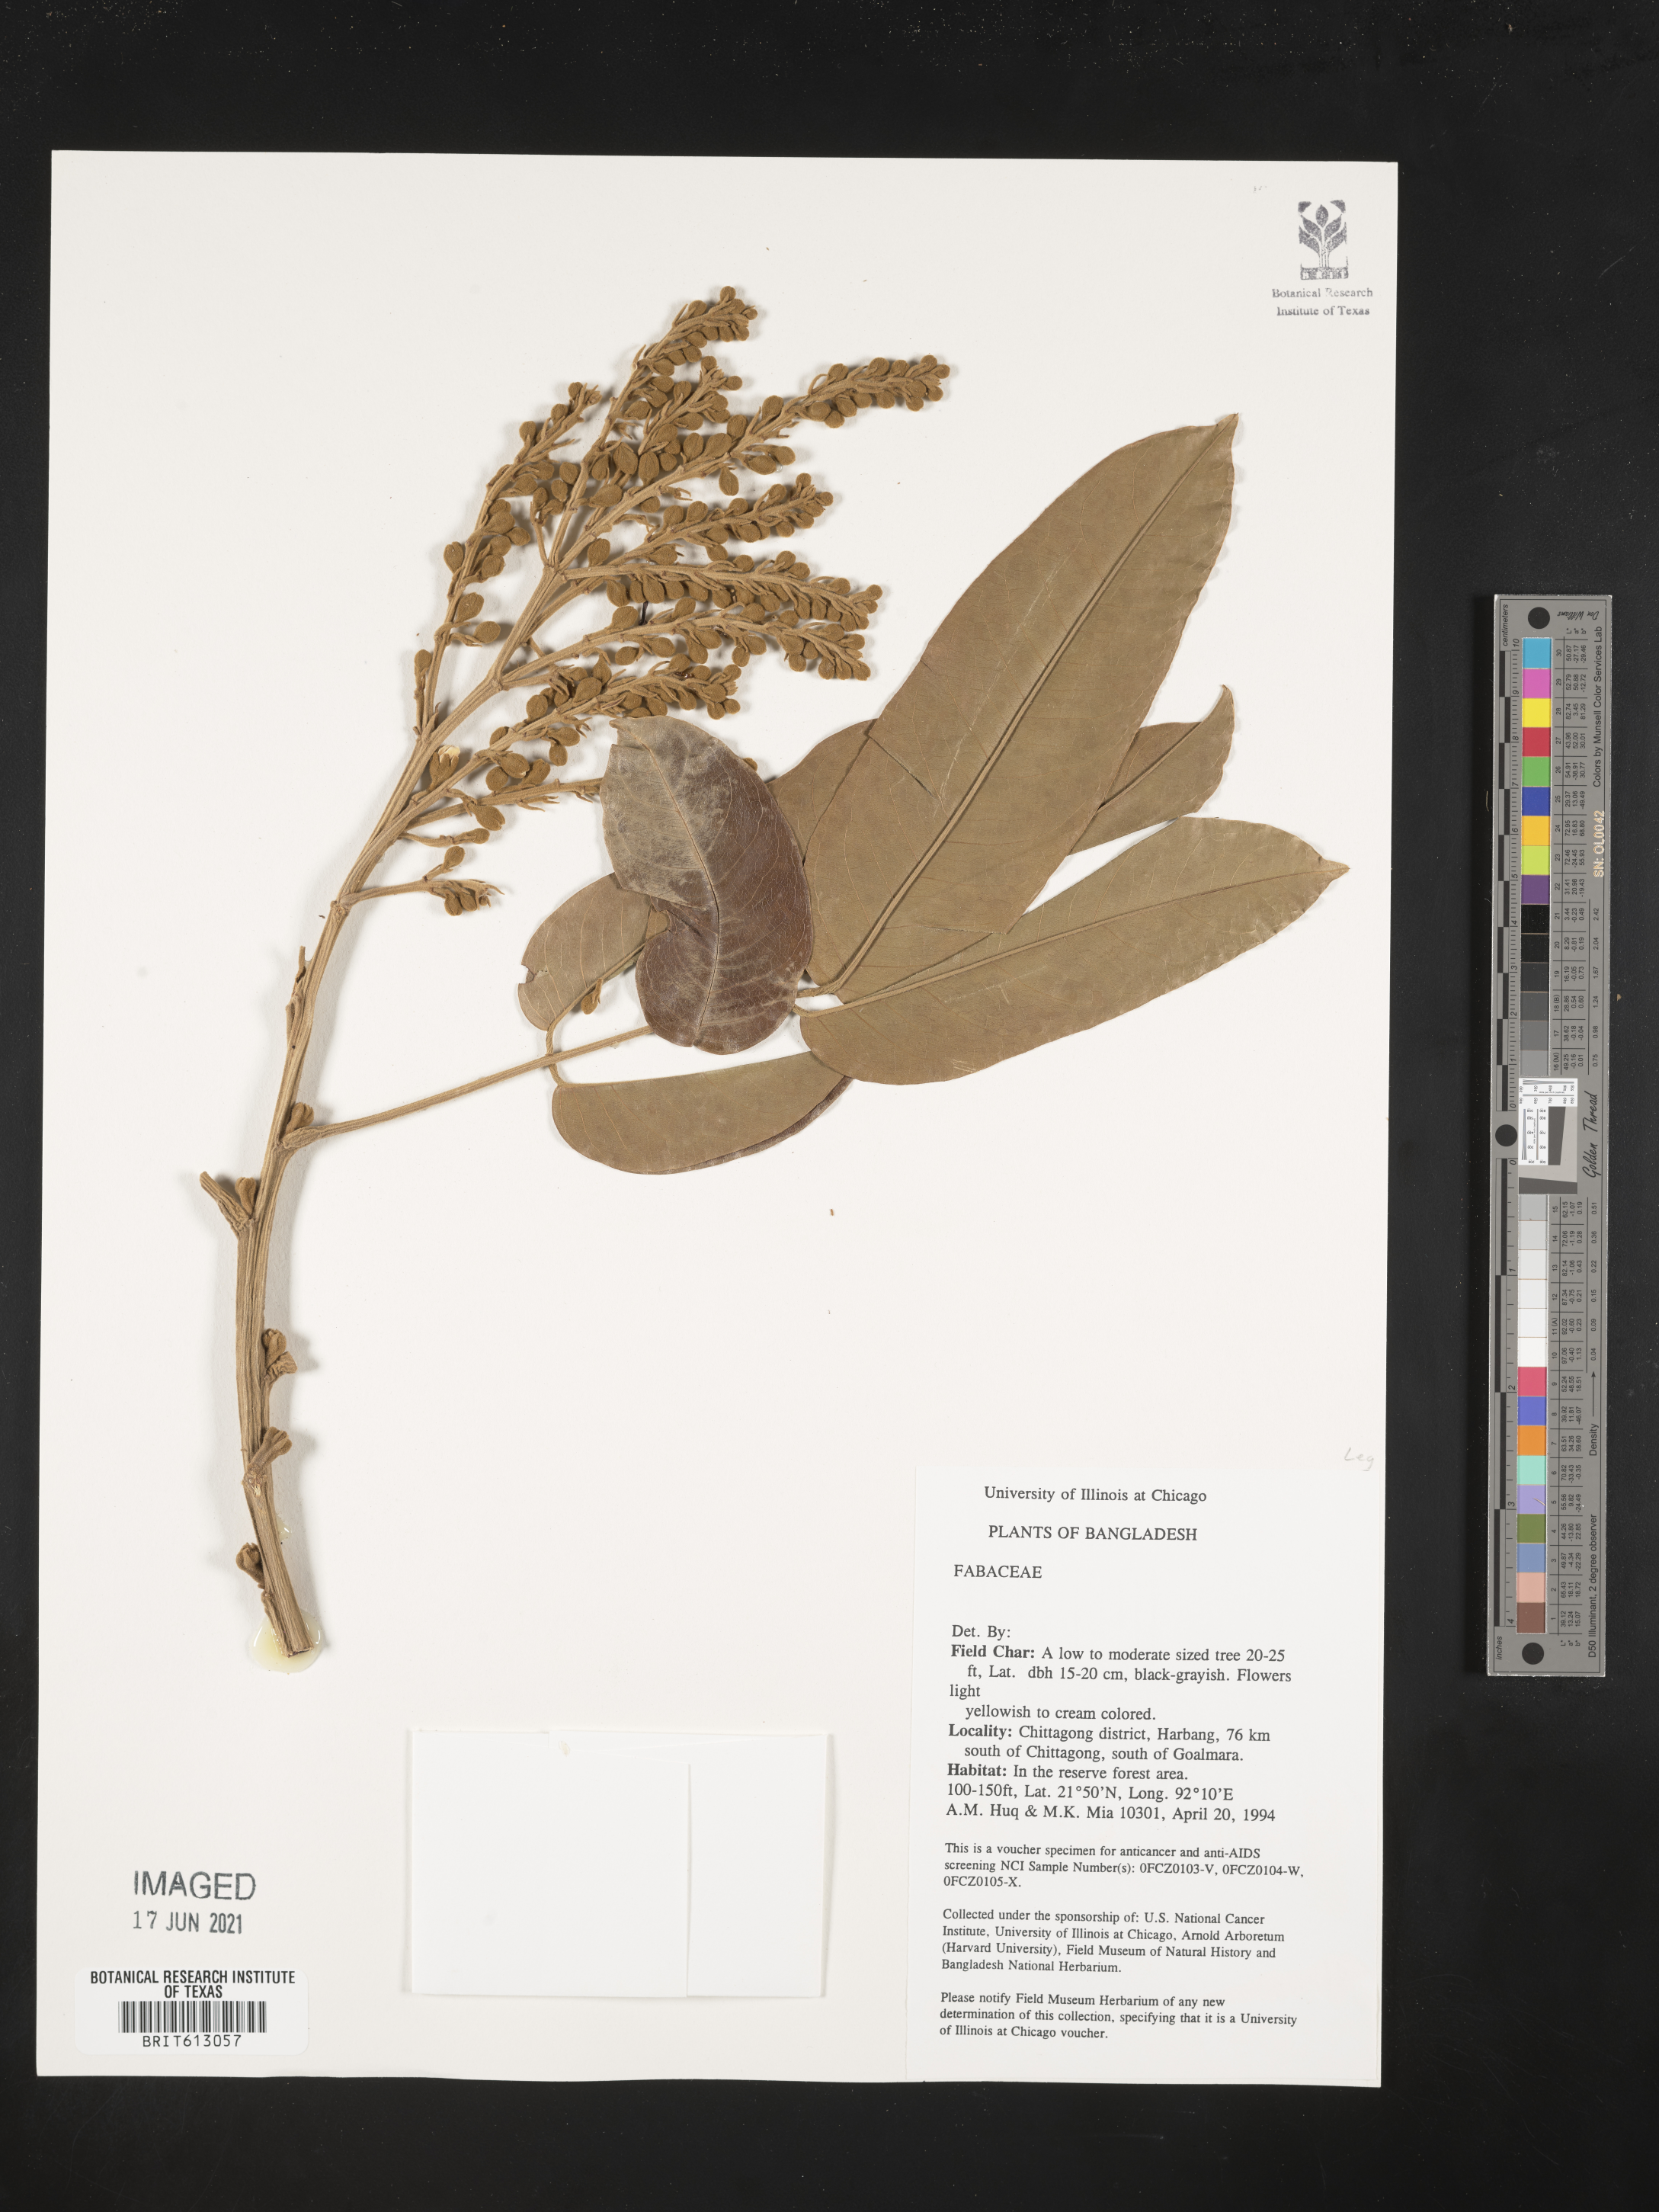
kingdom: Plantae
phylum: Tracheophyta
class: Magnoliopsida
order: Fabales
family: Fabaceae
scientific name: Fabaceae
